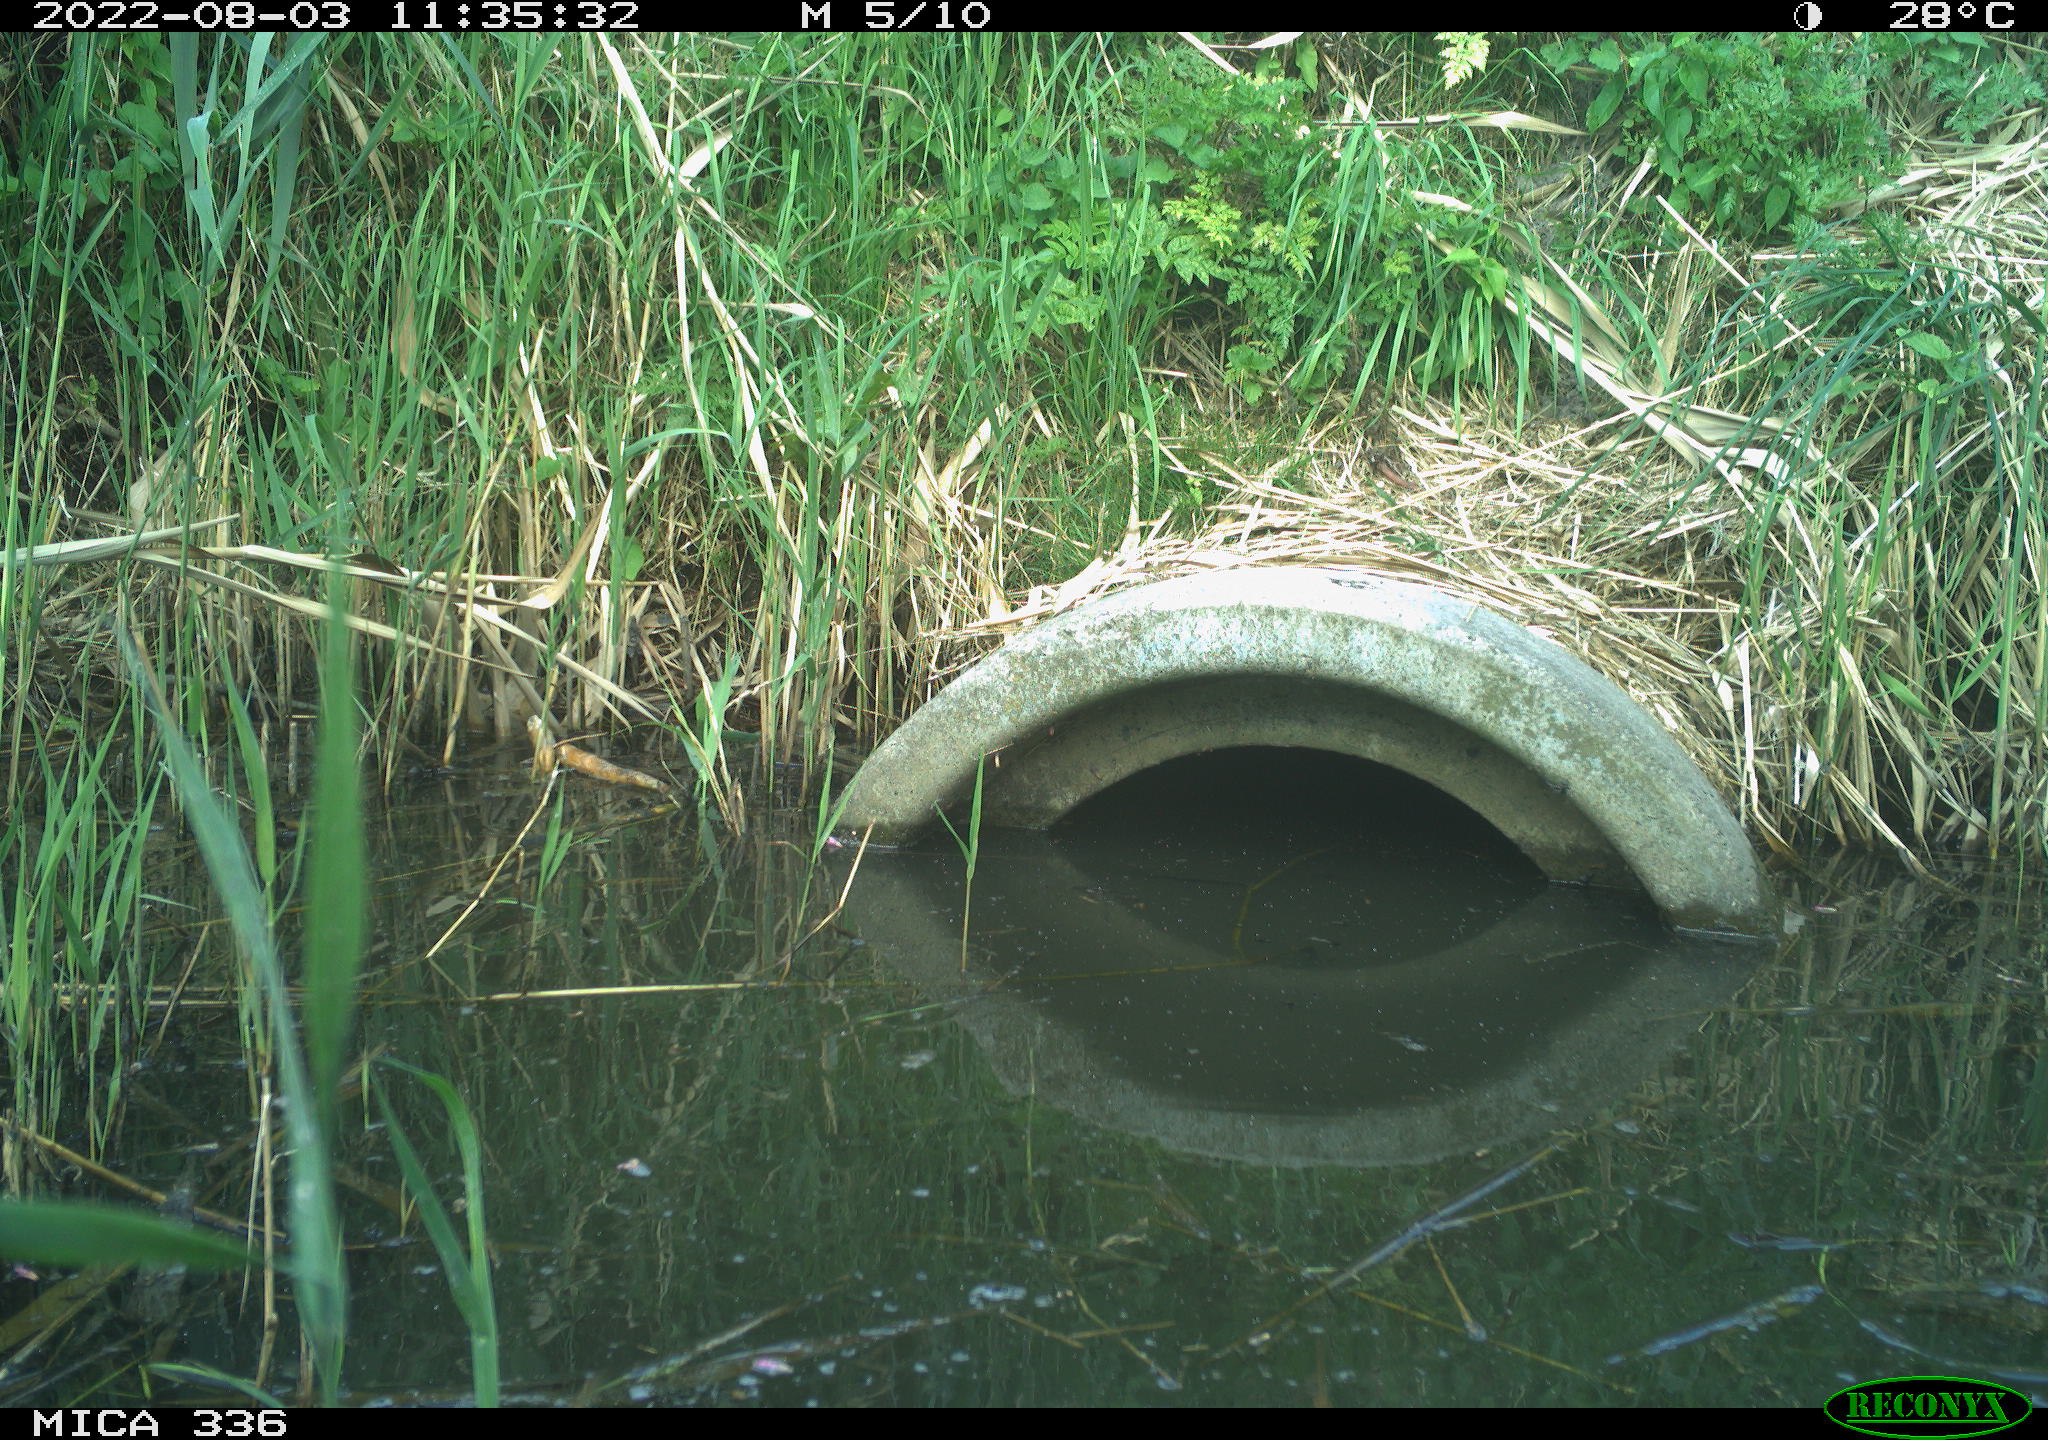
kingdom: Animalia
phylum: Chordata
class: Aves
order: Anseriformes
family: Anatidae
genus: Anas
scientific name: Anas platyrhynchos
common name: Mallard
